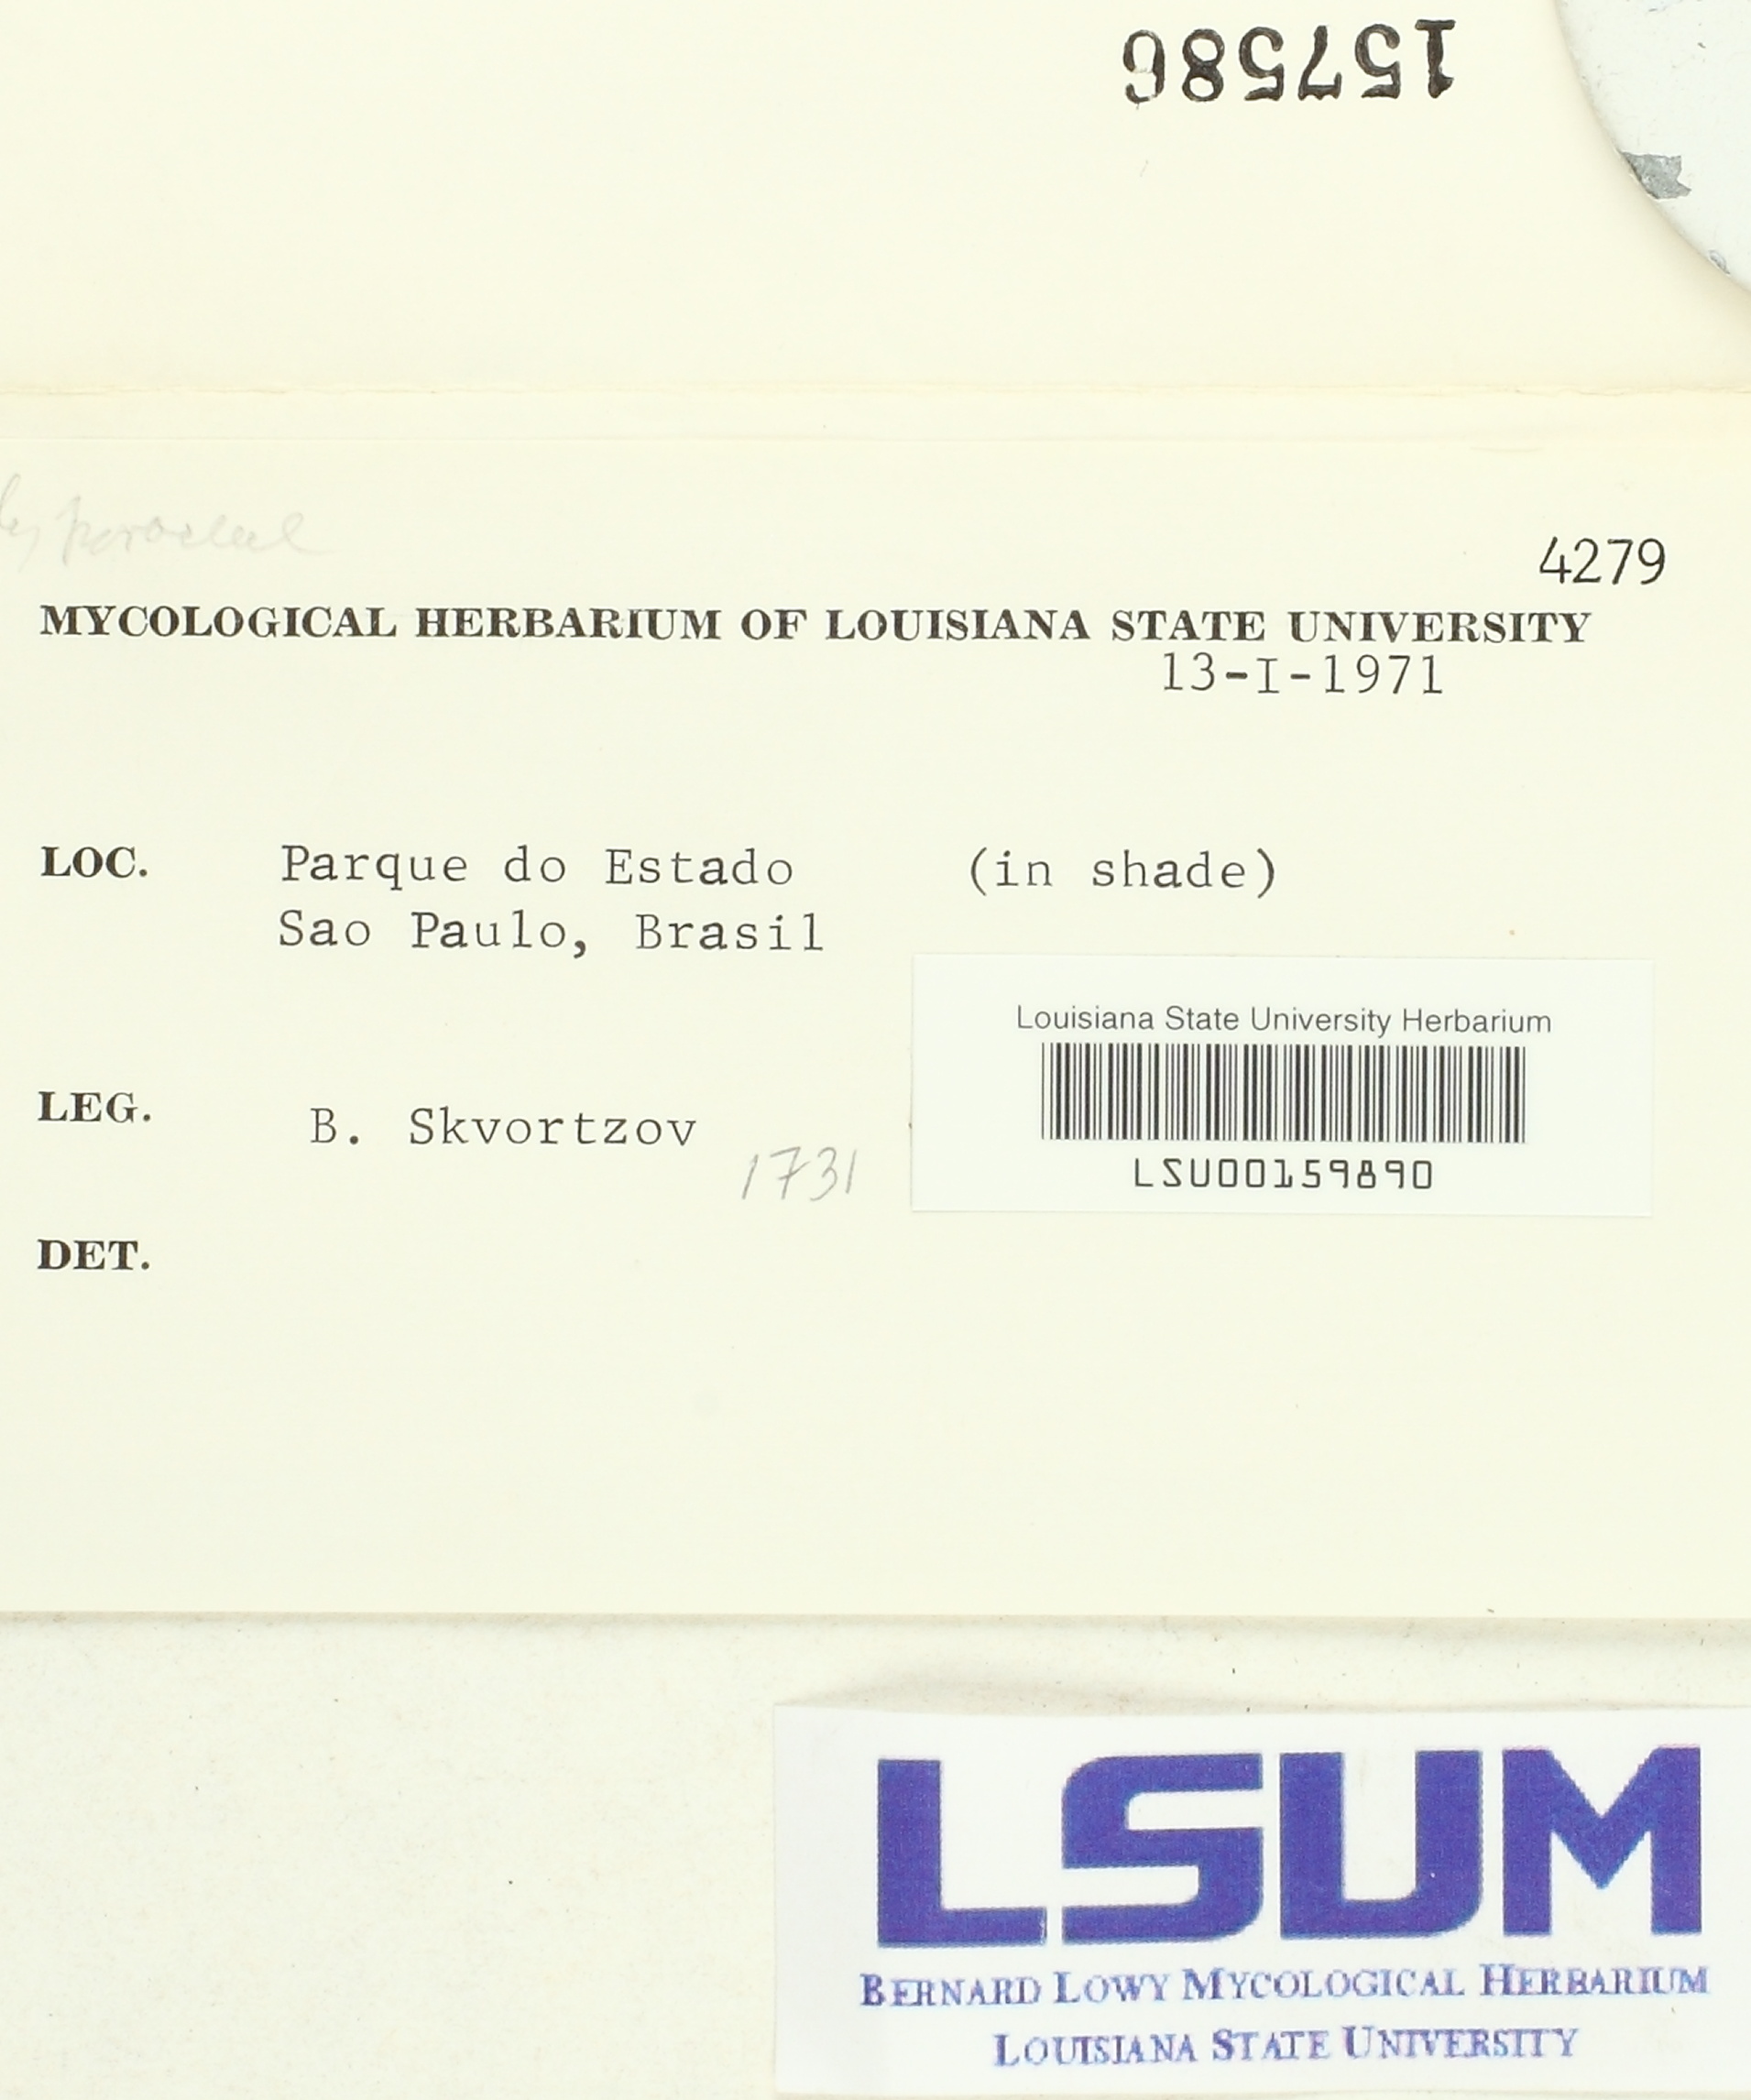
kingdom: Fungi
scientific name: Fungi
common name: Fungi
